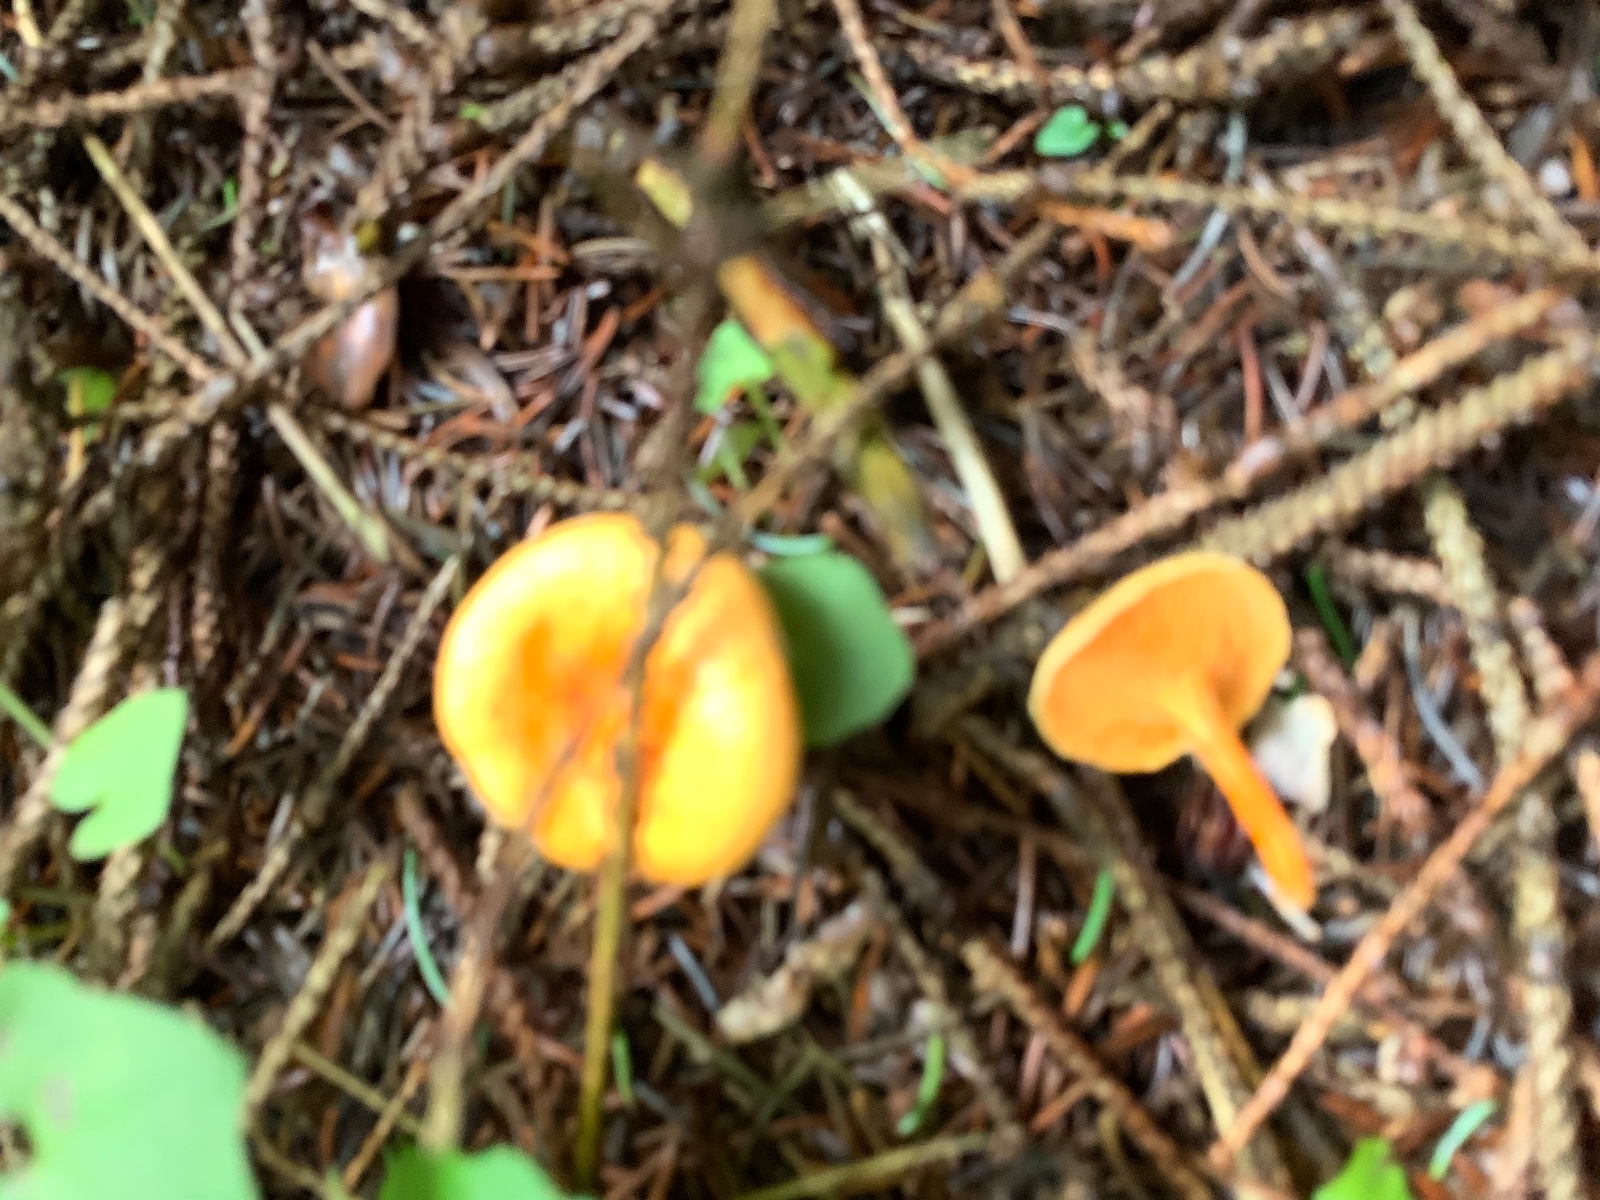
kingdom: Fungi
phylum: Basidiomycota
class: Agaricomycetes
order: Boletales
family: Hygrophoropsidaceae
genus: Hygrophoropsis
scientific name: Hygrophoropsis aurantiaca
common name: almindelig orangekantarel
